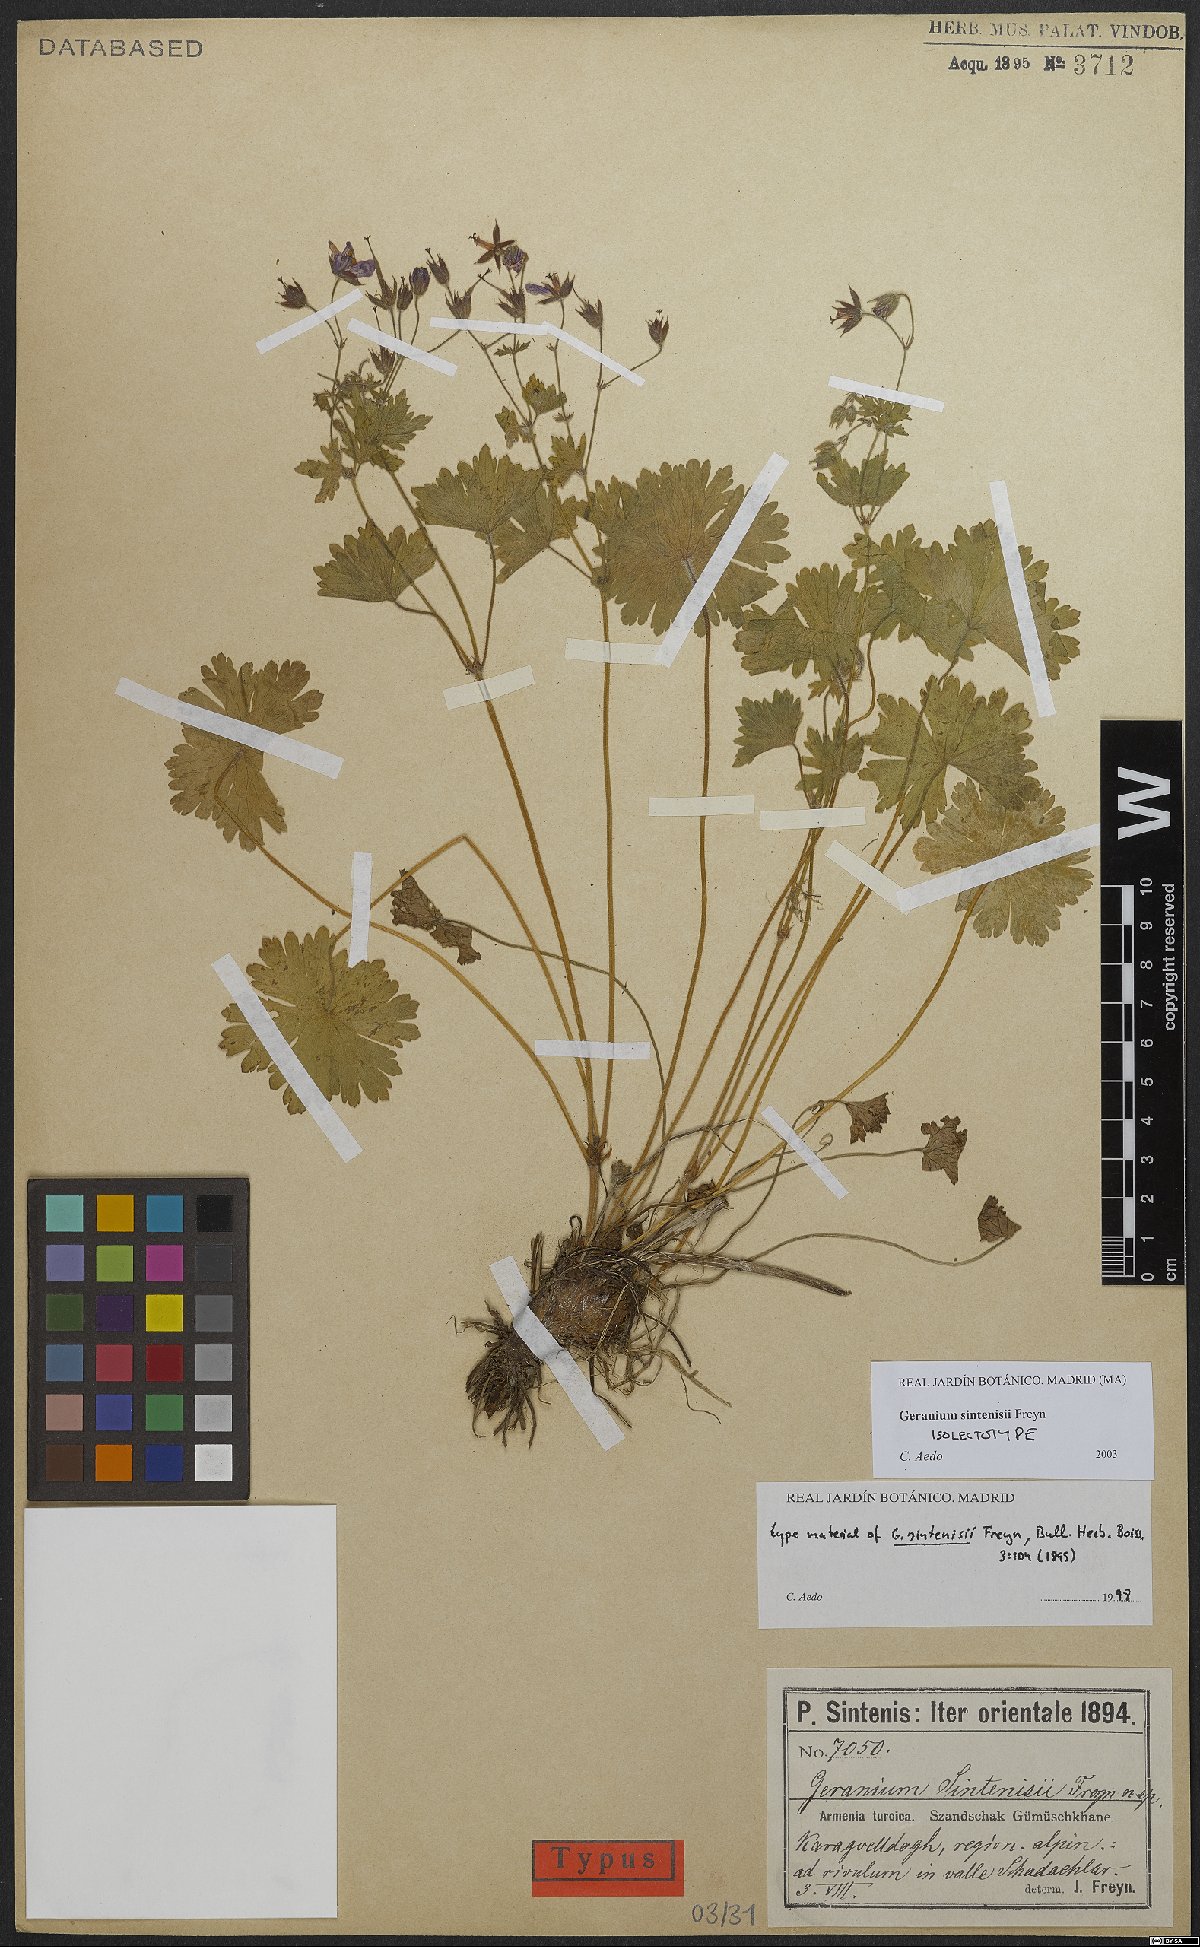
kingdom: Plantae
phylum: Tracheophyta
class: Magnoliopsida
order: Geraniales
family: Geraniaceae
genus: Geranium
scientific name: Geranium sintenisii
